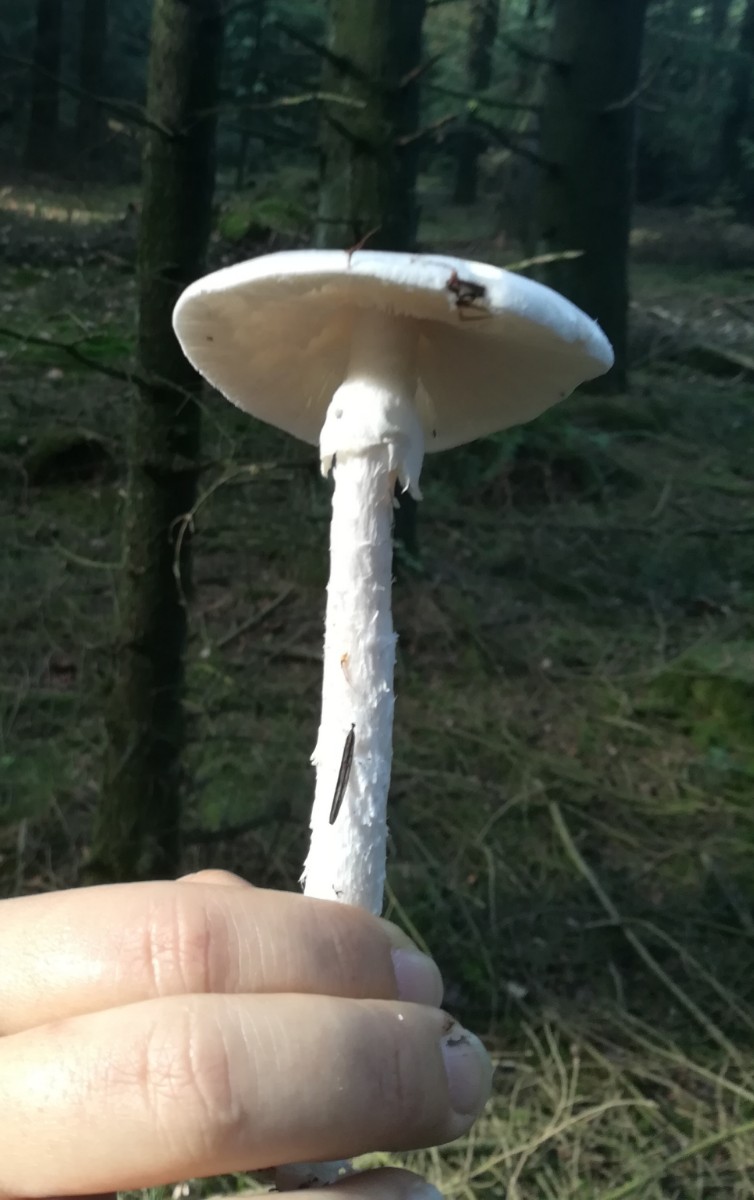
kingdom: Fungi
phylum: Basidiomycota
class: Agaricomycetes
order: Agaricales
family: Amanitaceae
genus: Amanita
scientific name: Amanita virosa
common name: snehvid fluesvamp
